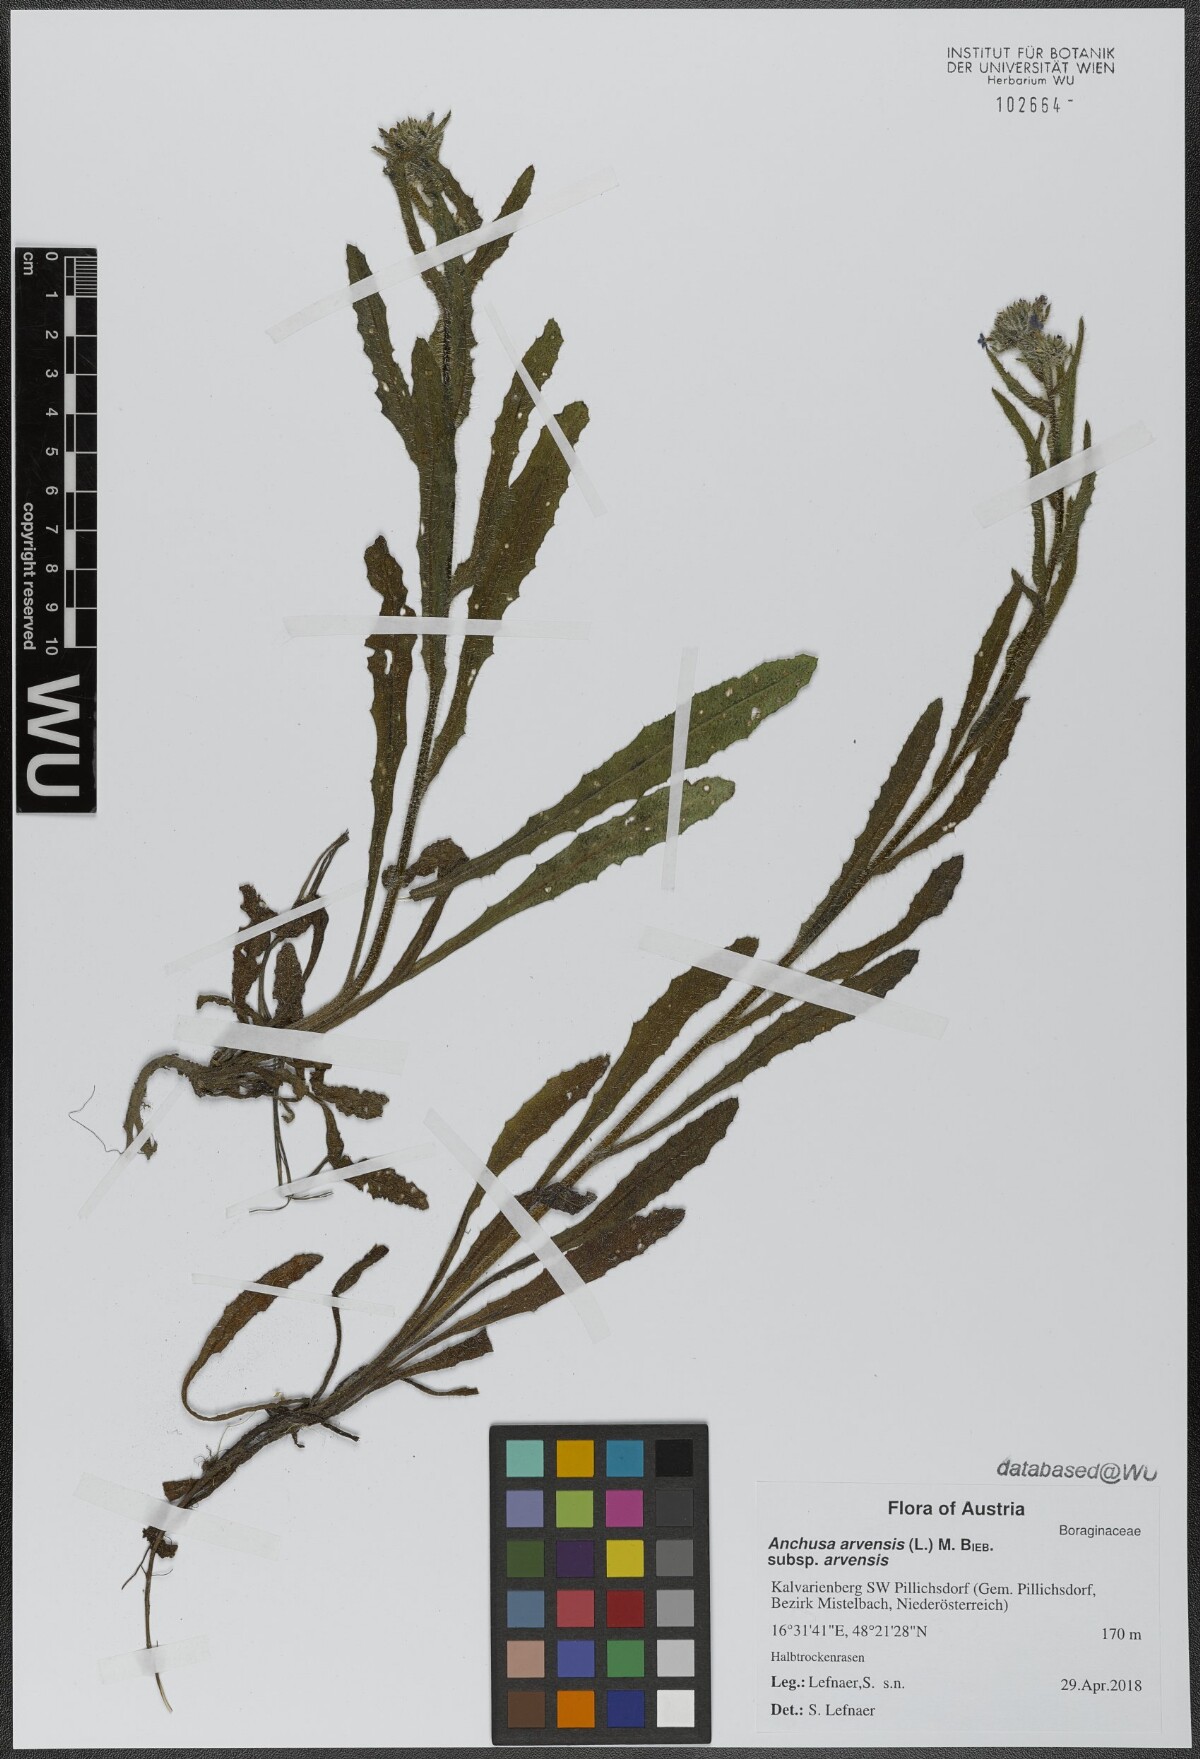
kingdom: Plantae
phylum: Tracheophyta
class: Magnoliopsida
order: Boraginales
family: Boraginaceae
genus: Lycopsis
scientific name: Lycopsis arvensis
